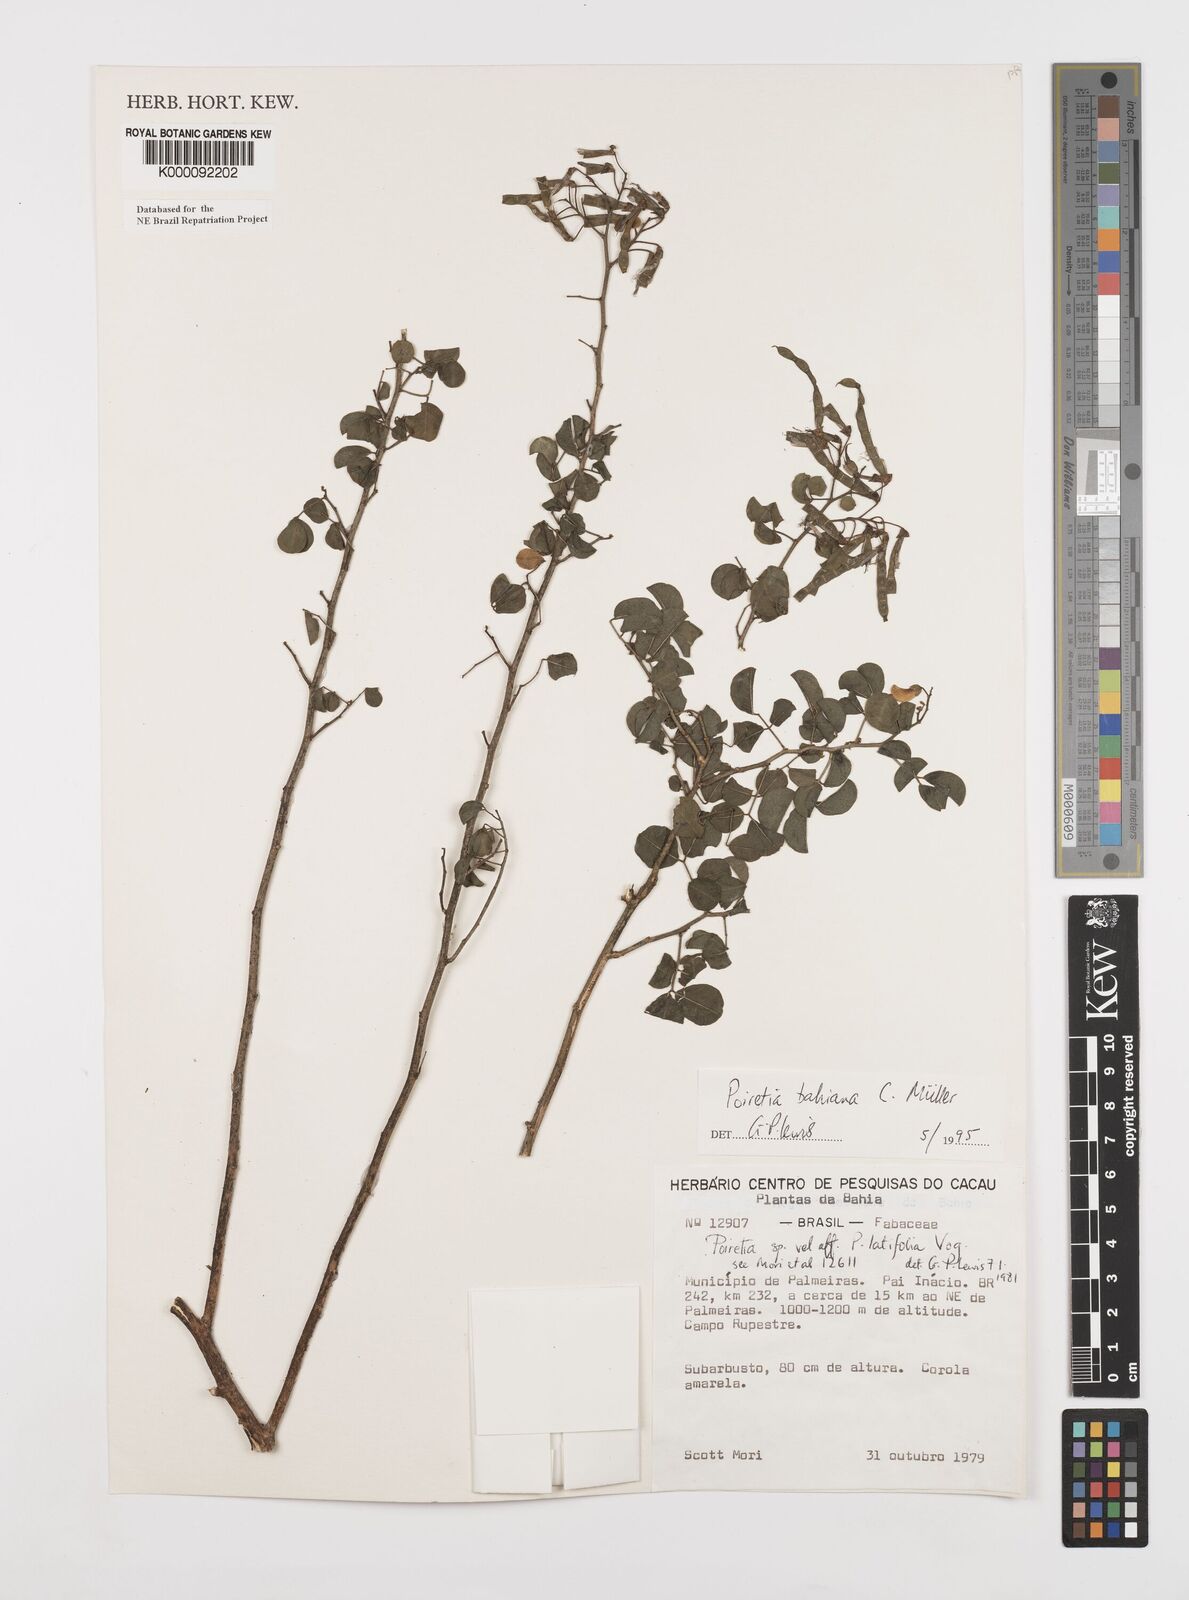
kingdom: Plantae
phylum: Tracheophyta
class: Magnoliopsida
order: Fabales
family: Fabaceae
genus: Poiretia
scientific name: Poiretia
